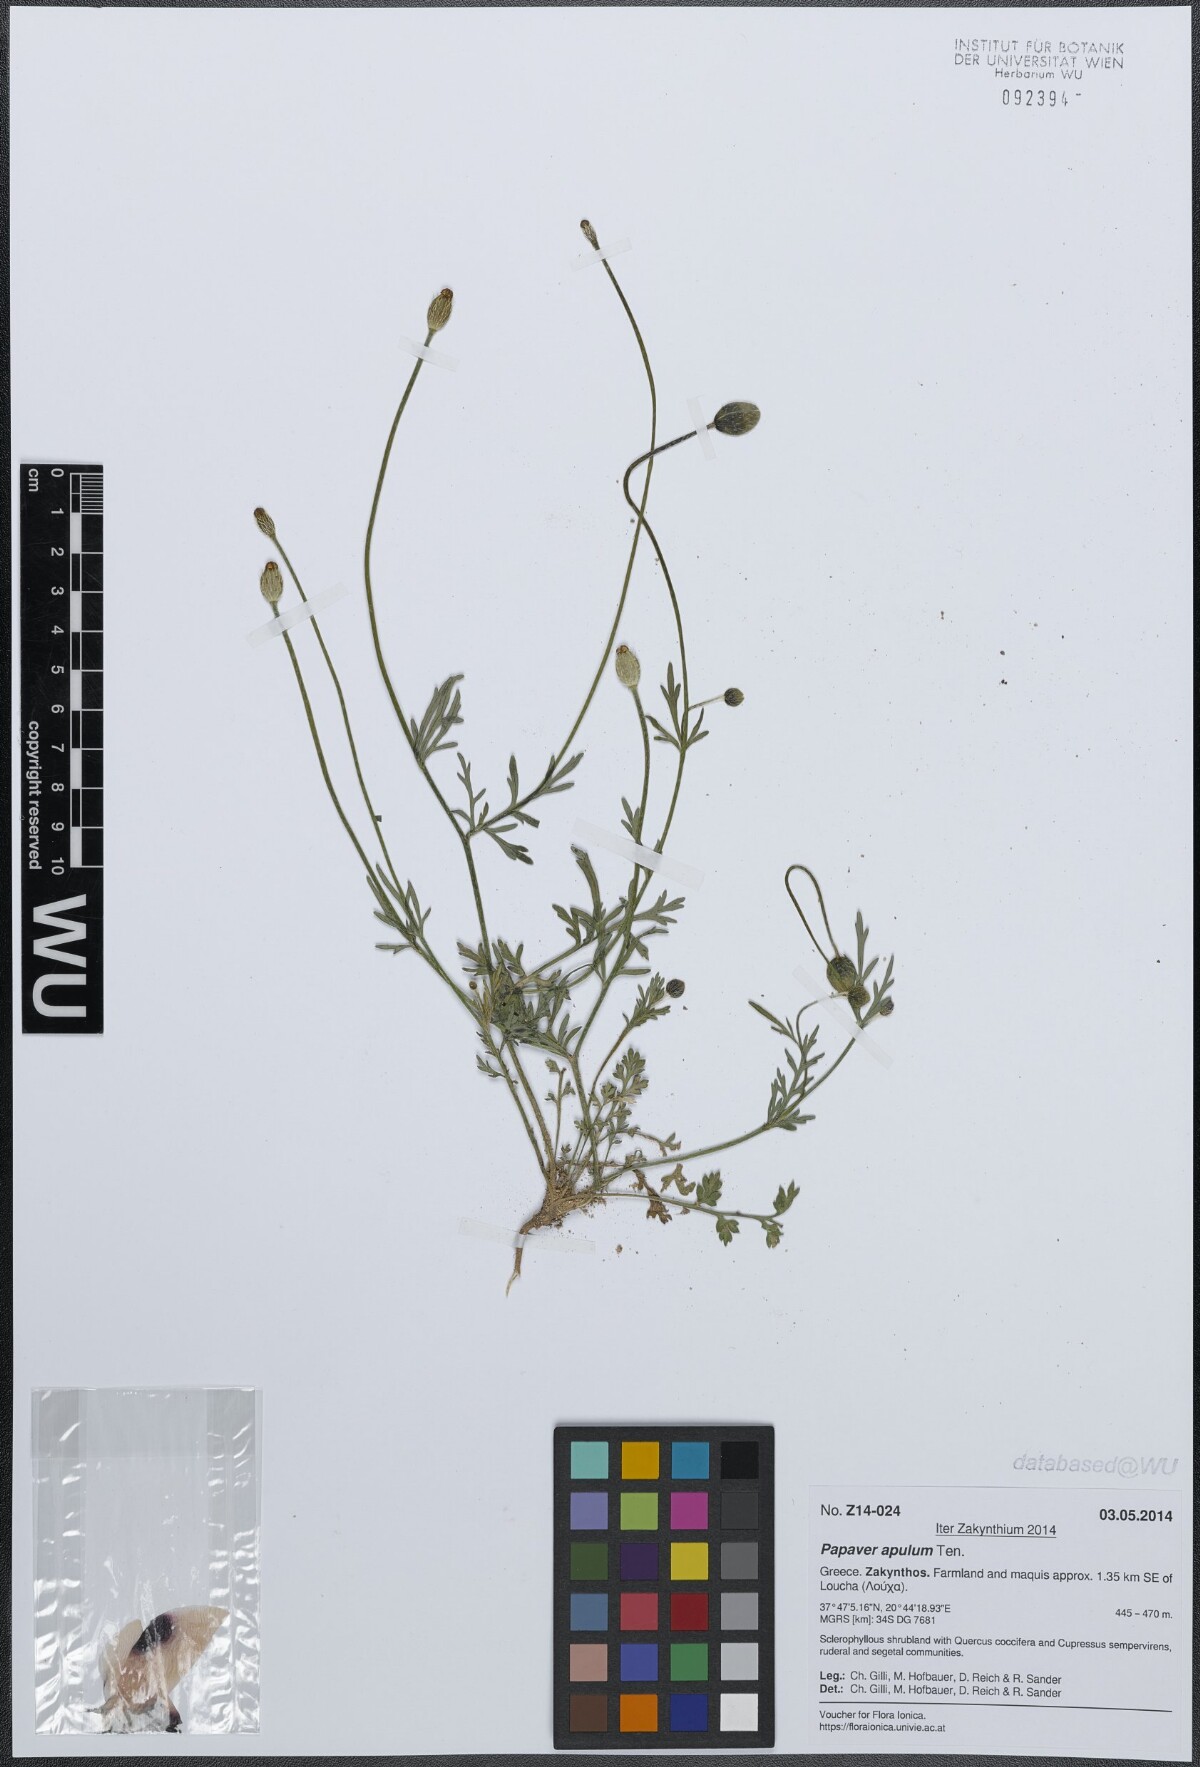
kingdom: Plantae
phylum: Tracheophyta
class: Magnoliopsida
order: Ranunculales
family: Papaveraceae
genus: Roemeria
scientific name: Roemeria apula
